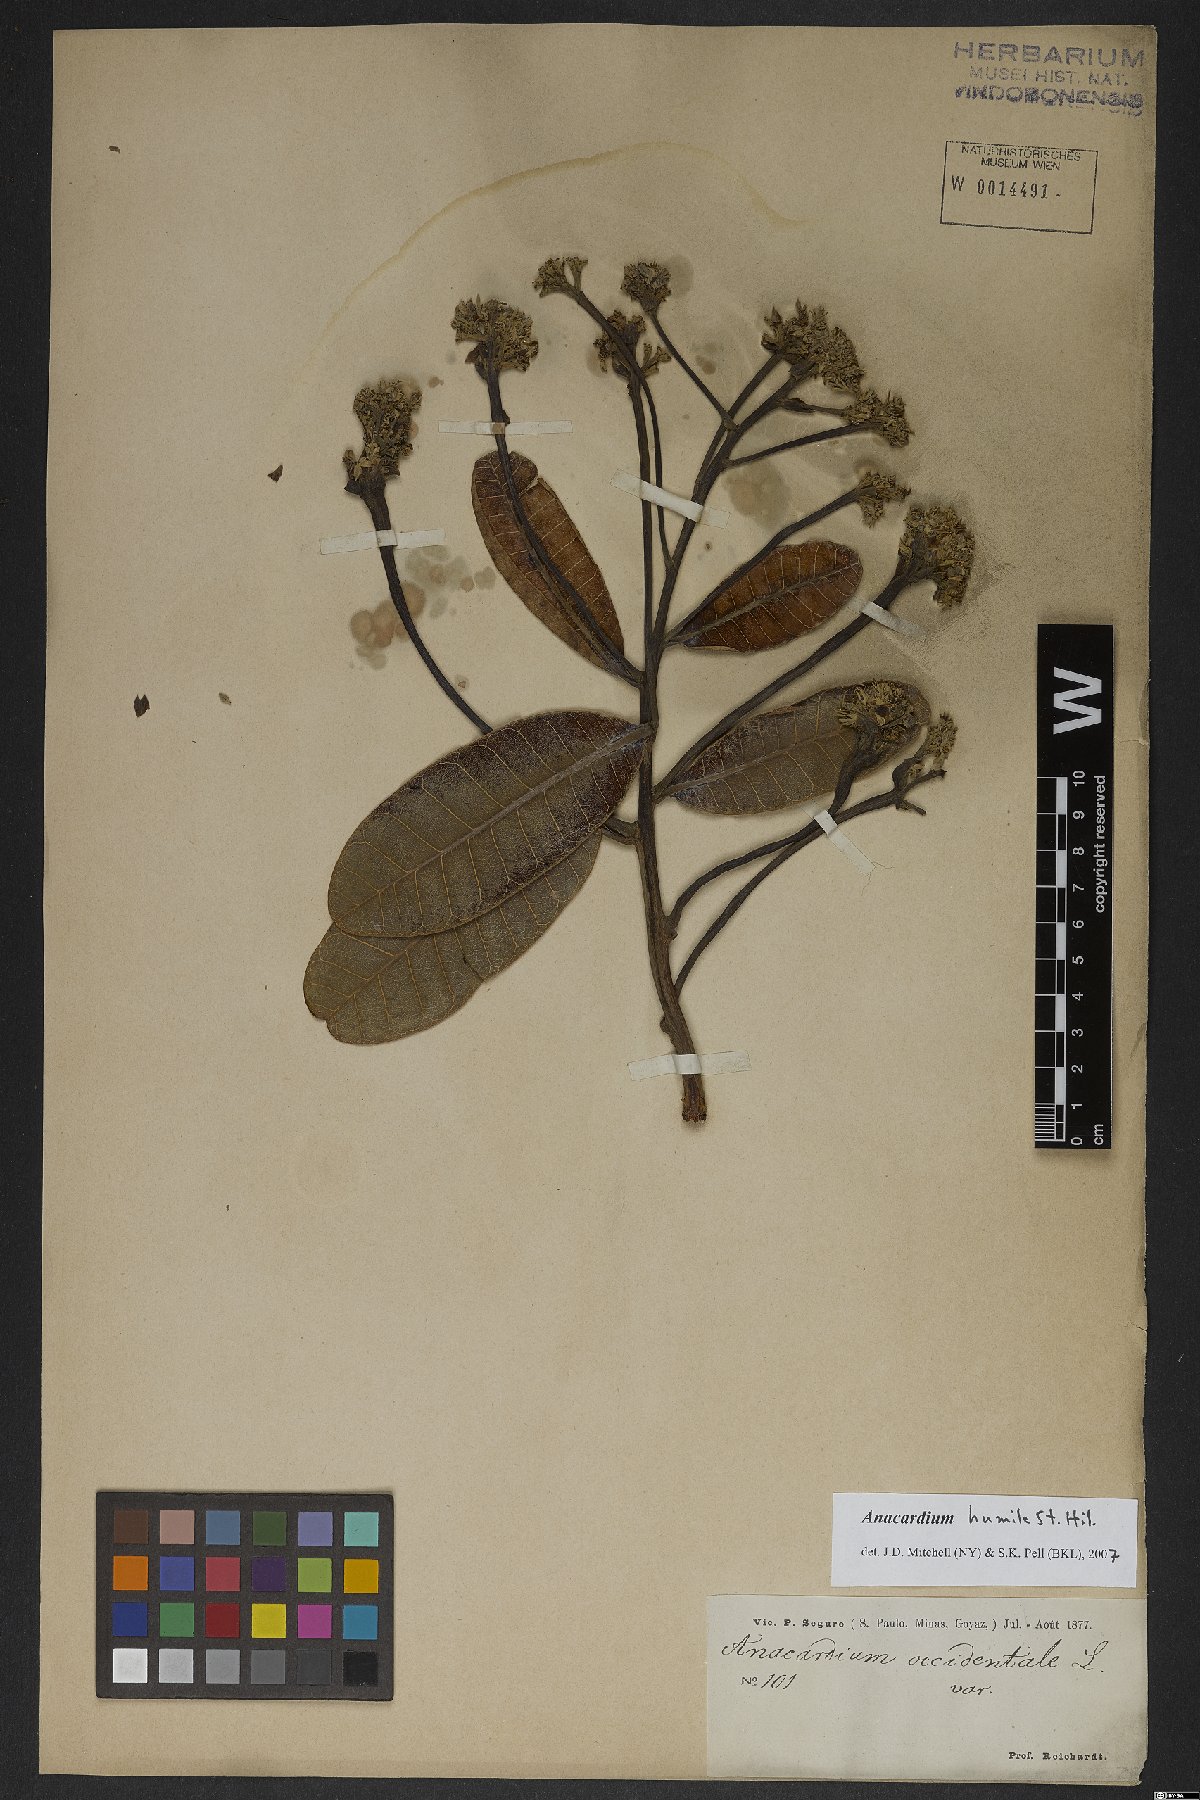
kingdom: Plantae
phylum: Tracheophyta
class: Magnoliopsida
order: Sapindales
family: Anacardiaceae
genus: Anacardium
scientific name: Anacardium humile
